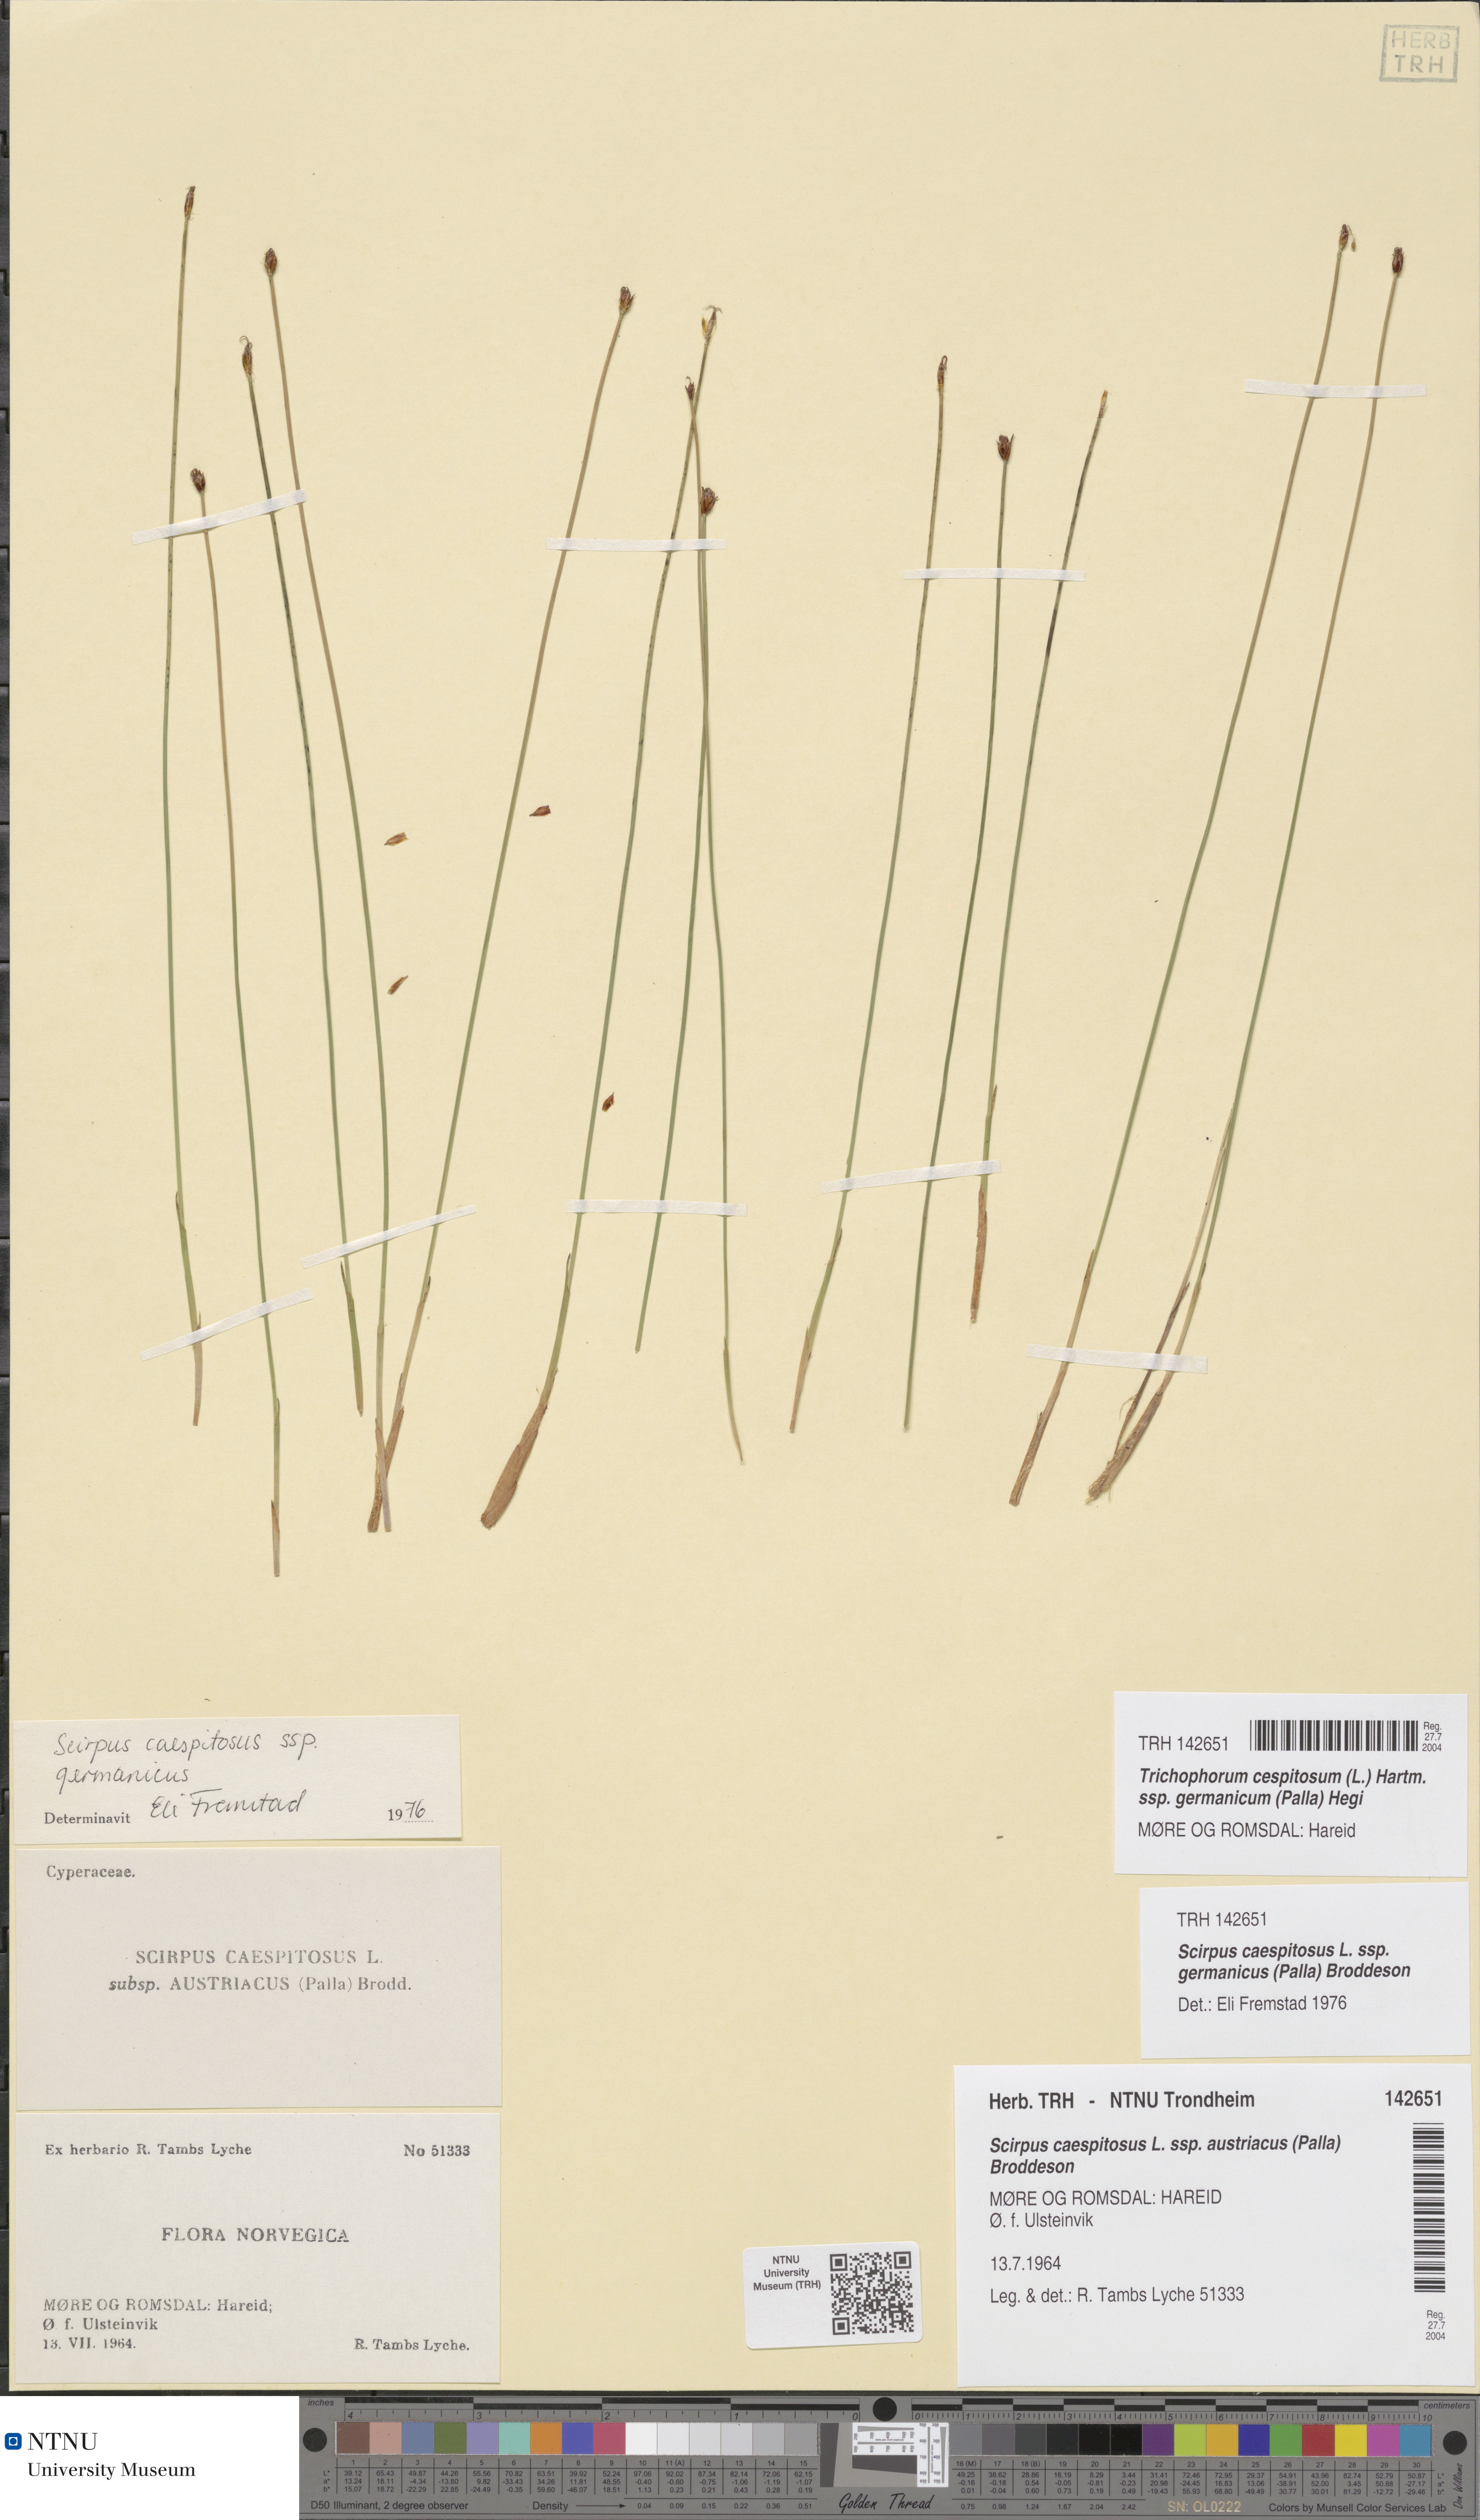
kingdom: Plantae
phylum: Tracheophyta
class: Liliopsida
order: Poales
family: Cyperaceae
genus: Trichophorum
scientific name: Trichophorum cespitosum
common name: Cespitose bulrush
